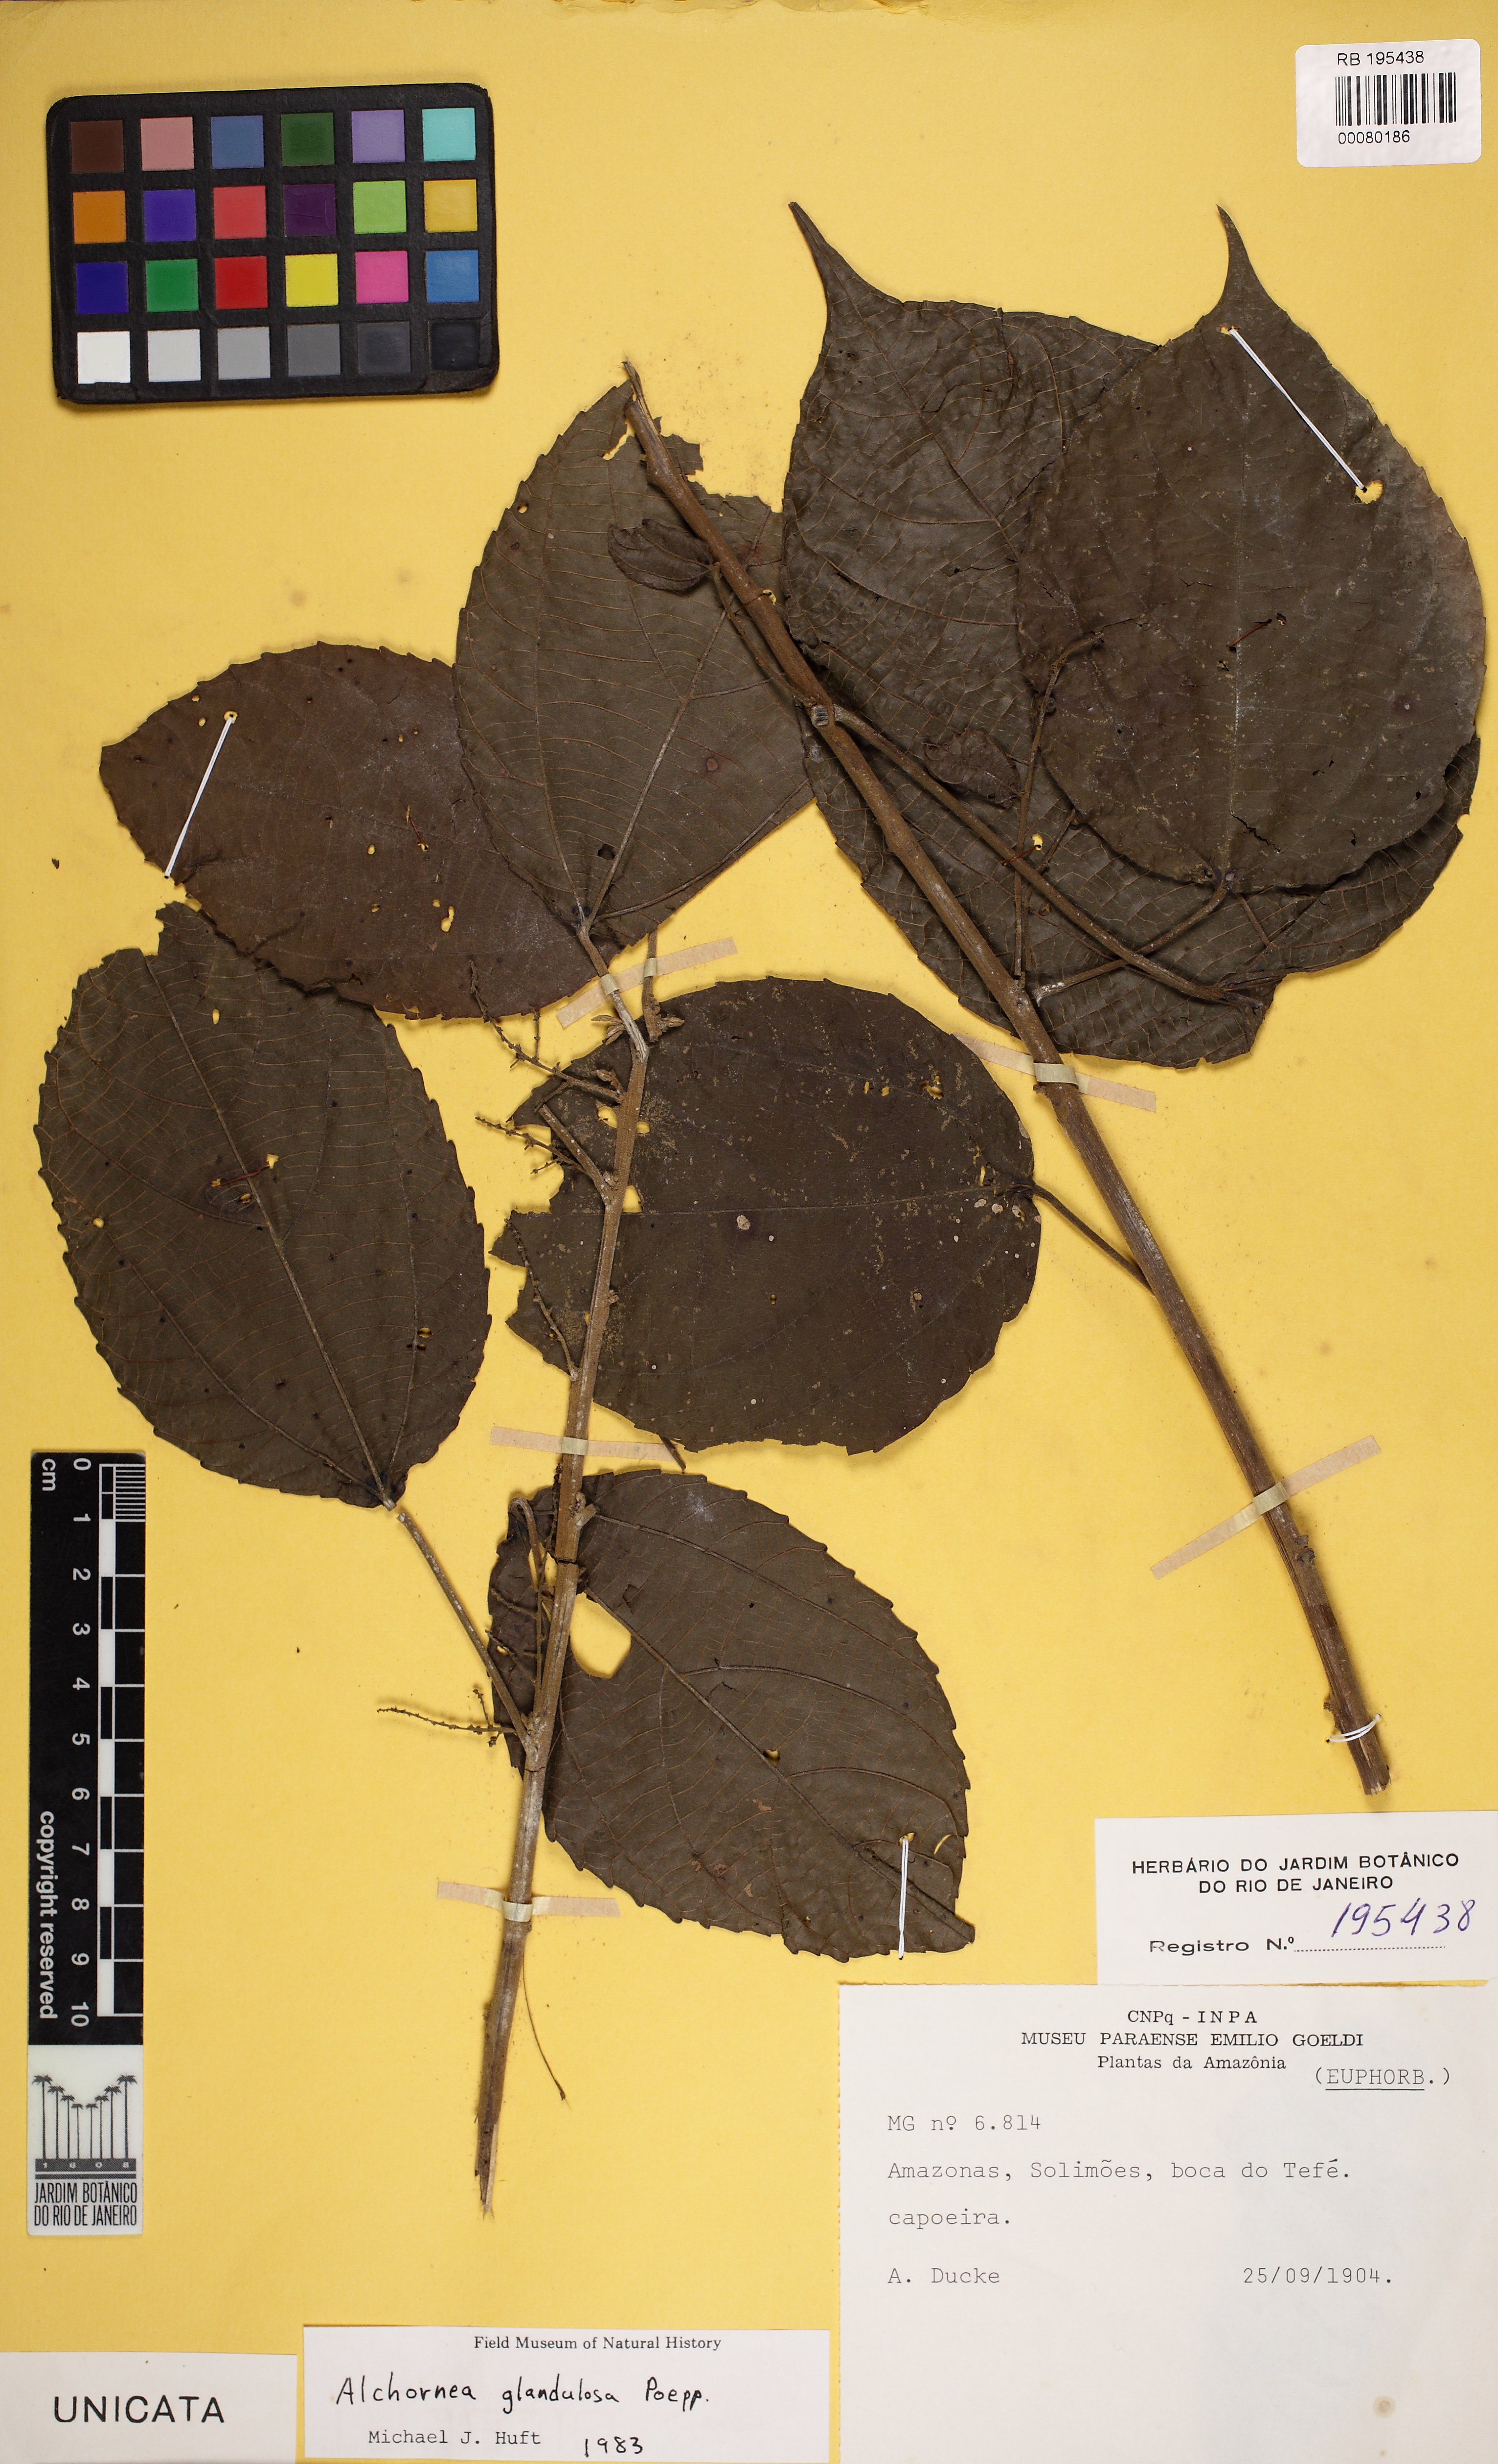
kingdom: Plantae
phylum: Tracheophyta
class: Magnoliopsida
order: Malpighiales
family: Euphorbiaceae
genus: Alchornea
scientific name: Alchornea glandulosa
